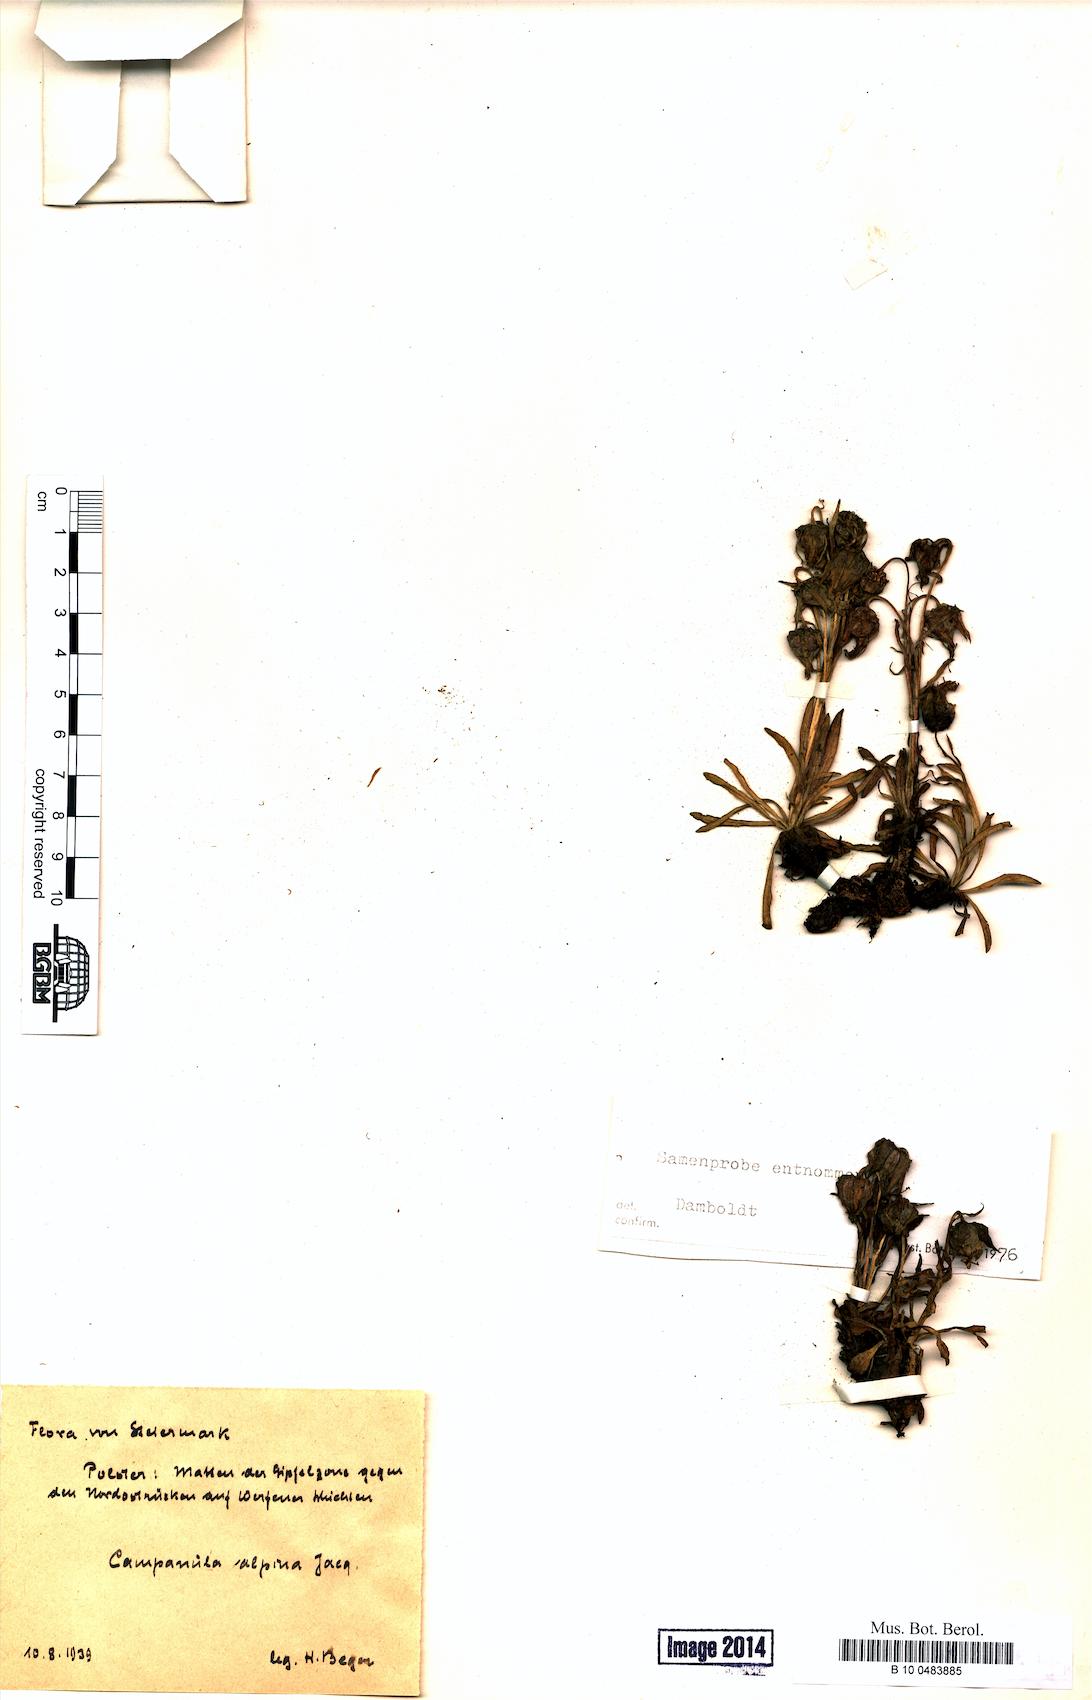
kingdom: Plantae
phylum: Tracheophyta
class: Magnoliopsida
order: Asterales
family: Campanulaceae
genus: Campanula
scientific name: Campanula alpina
